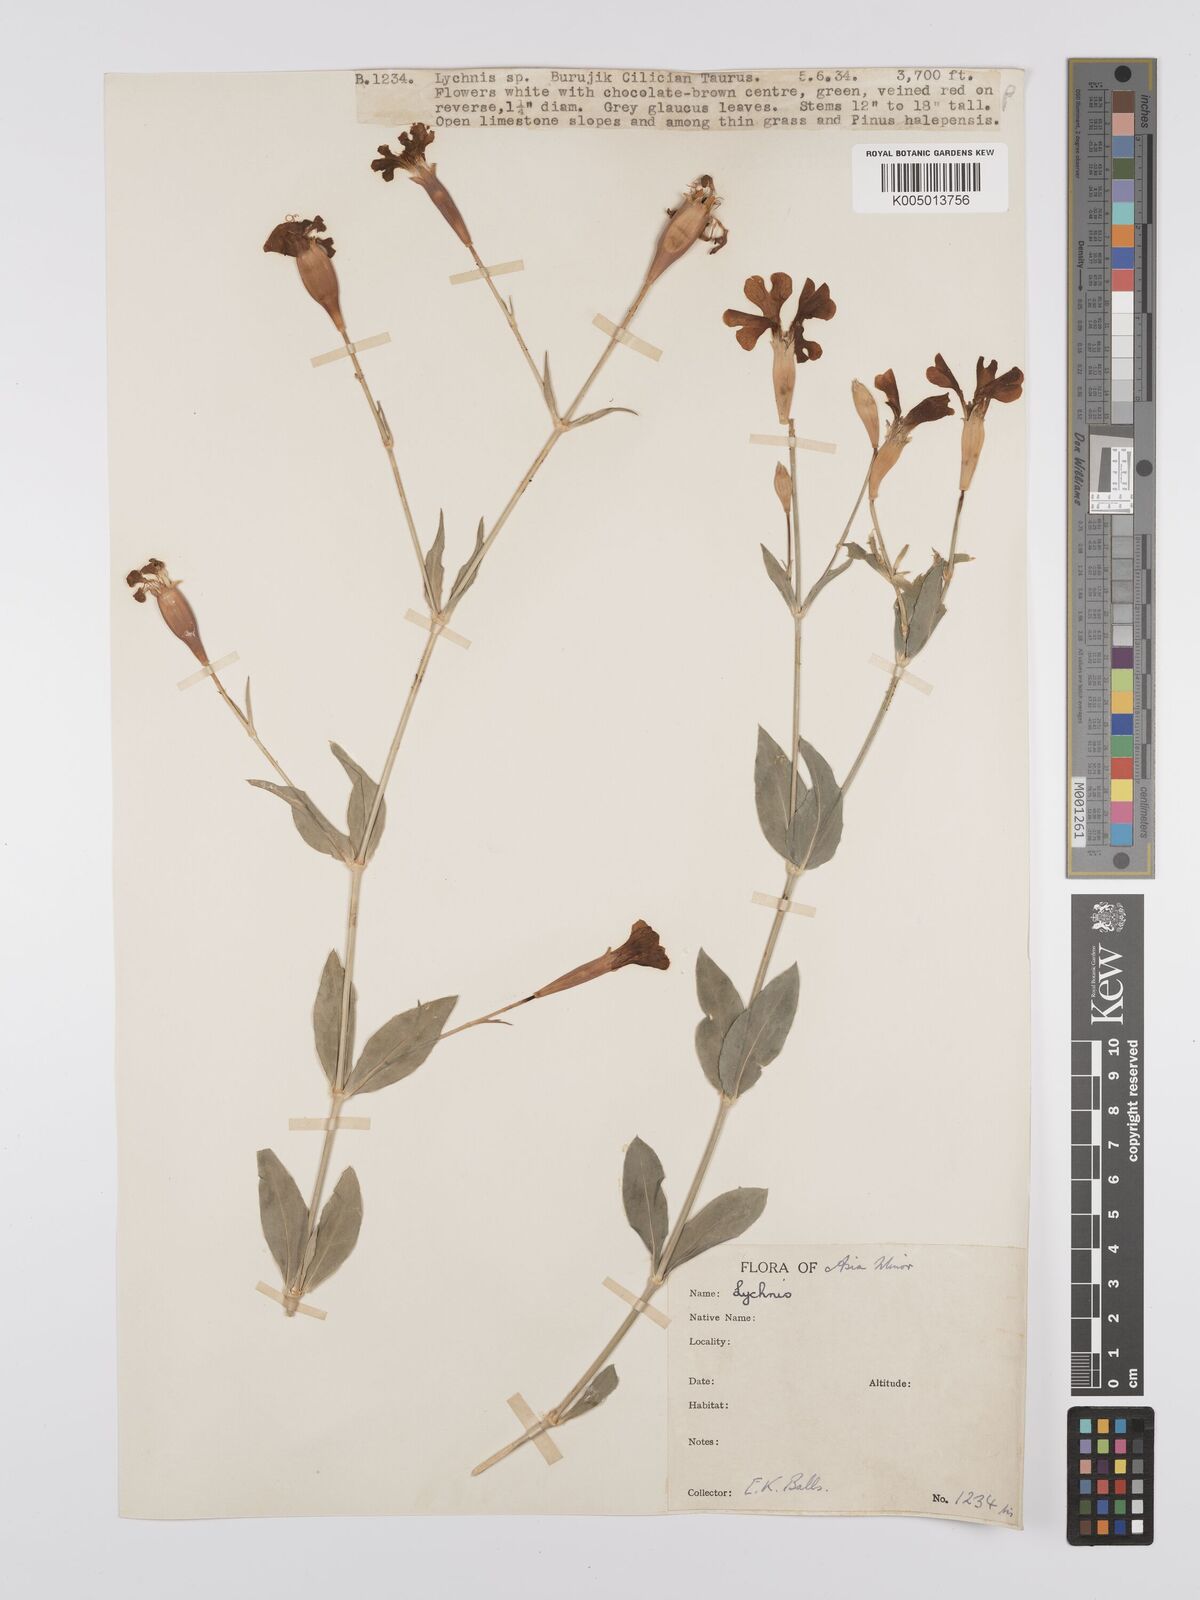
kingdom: Plantae
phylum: Tracheophyta
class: Magnoliopsida
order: Caryophyllales
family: Caryophyllaceae
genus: Silene
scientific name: Silene swertiifolia
